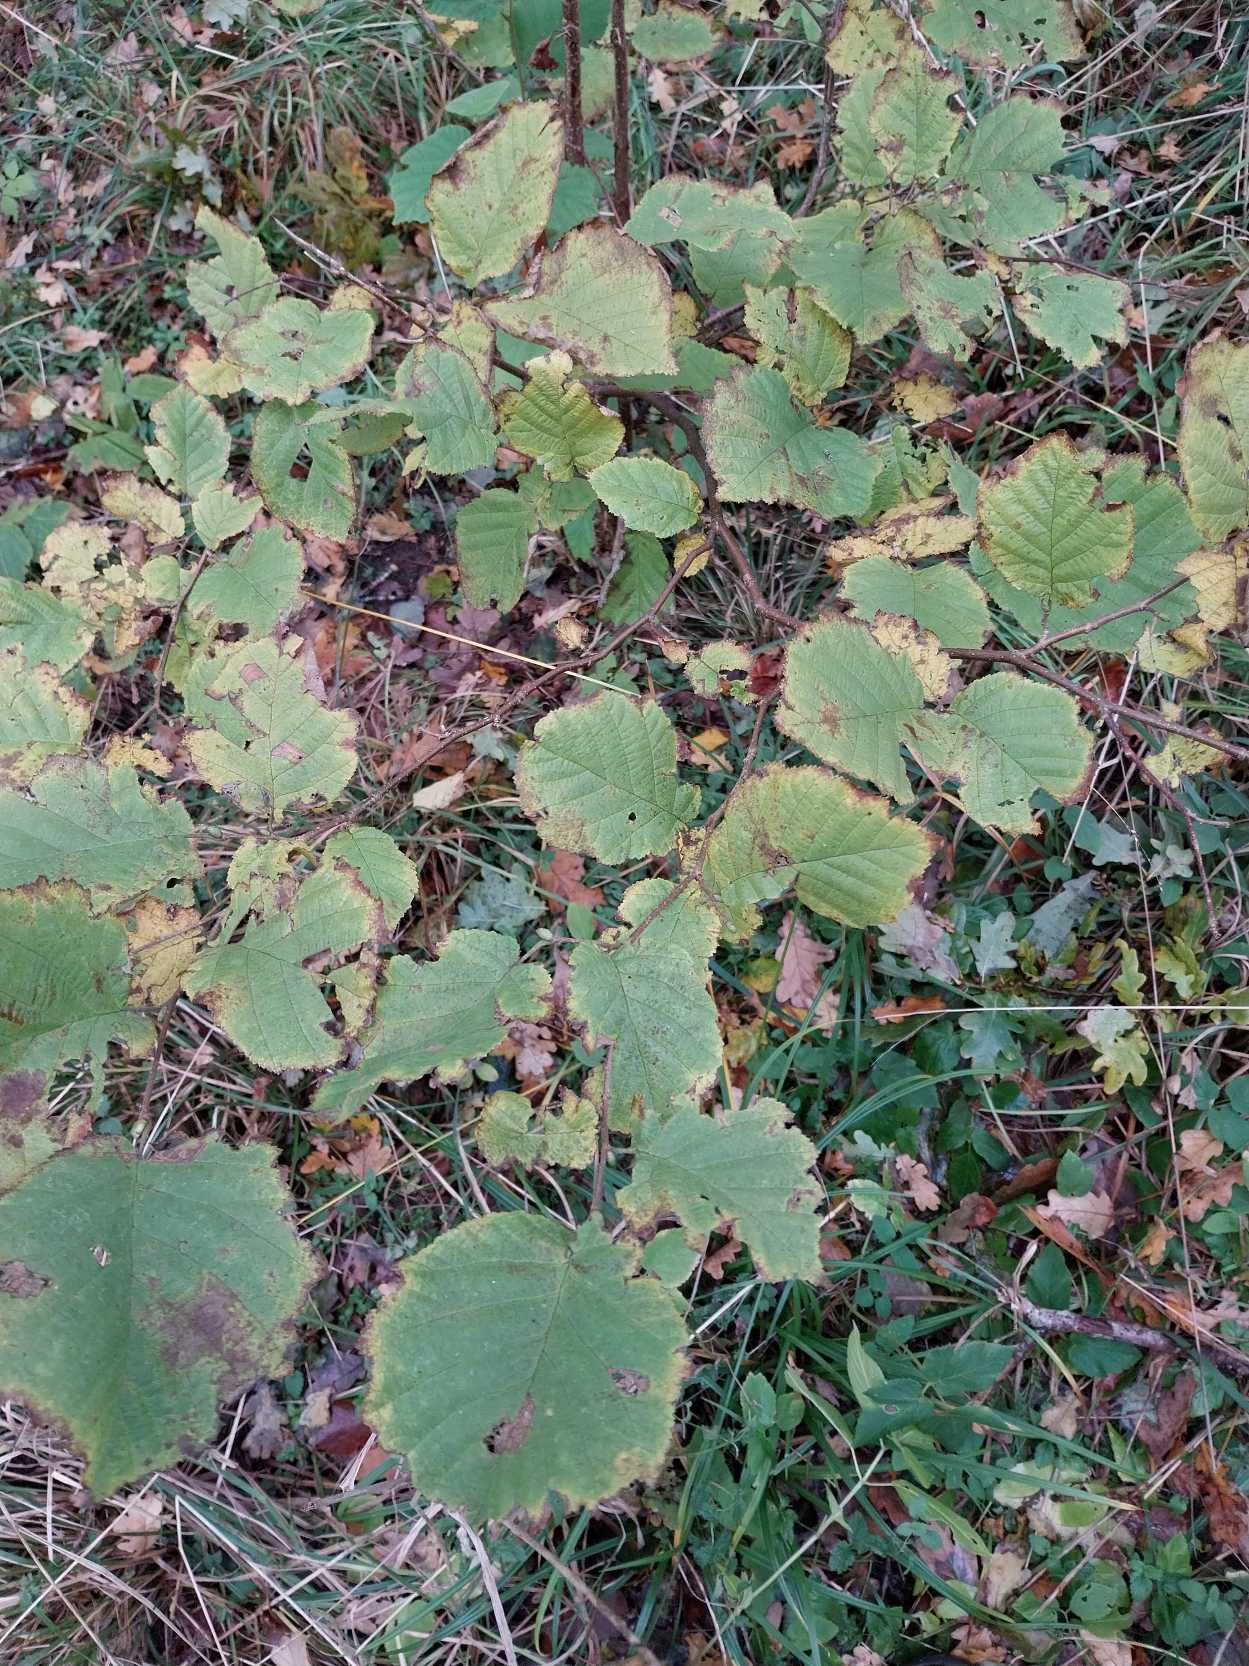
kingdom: Plantae
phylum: Tracheophyta
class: Magnoliopsida
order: Fagales
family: Betulaceae
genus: Corylus
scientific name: Corylus avellana
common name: Hassel
